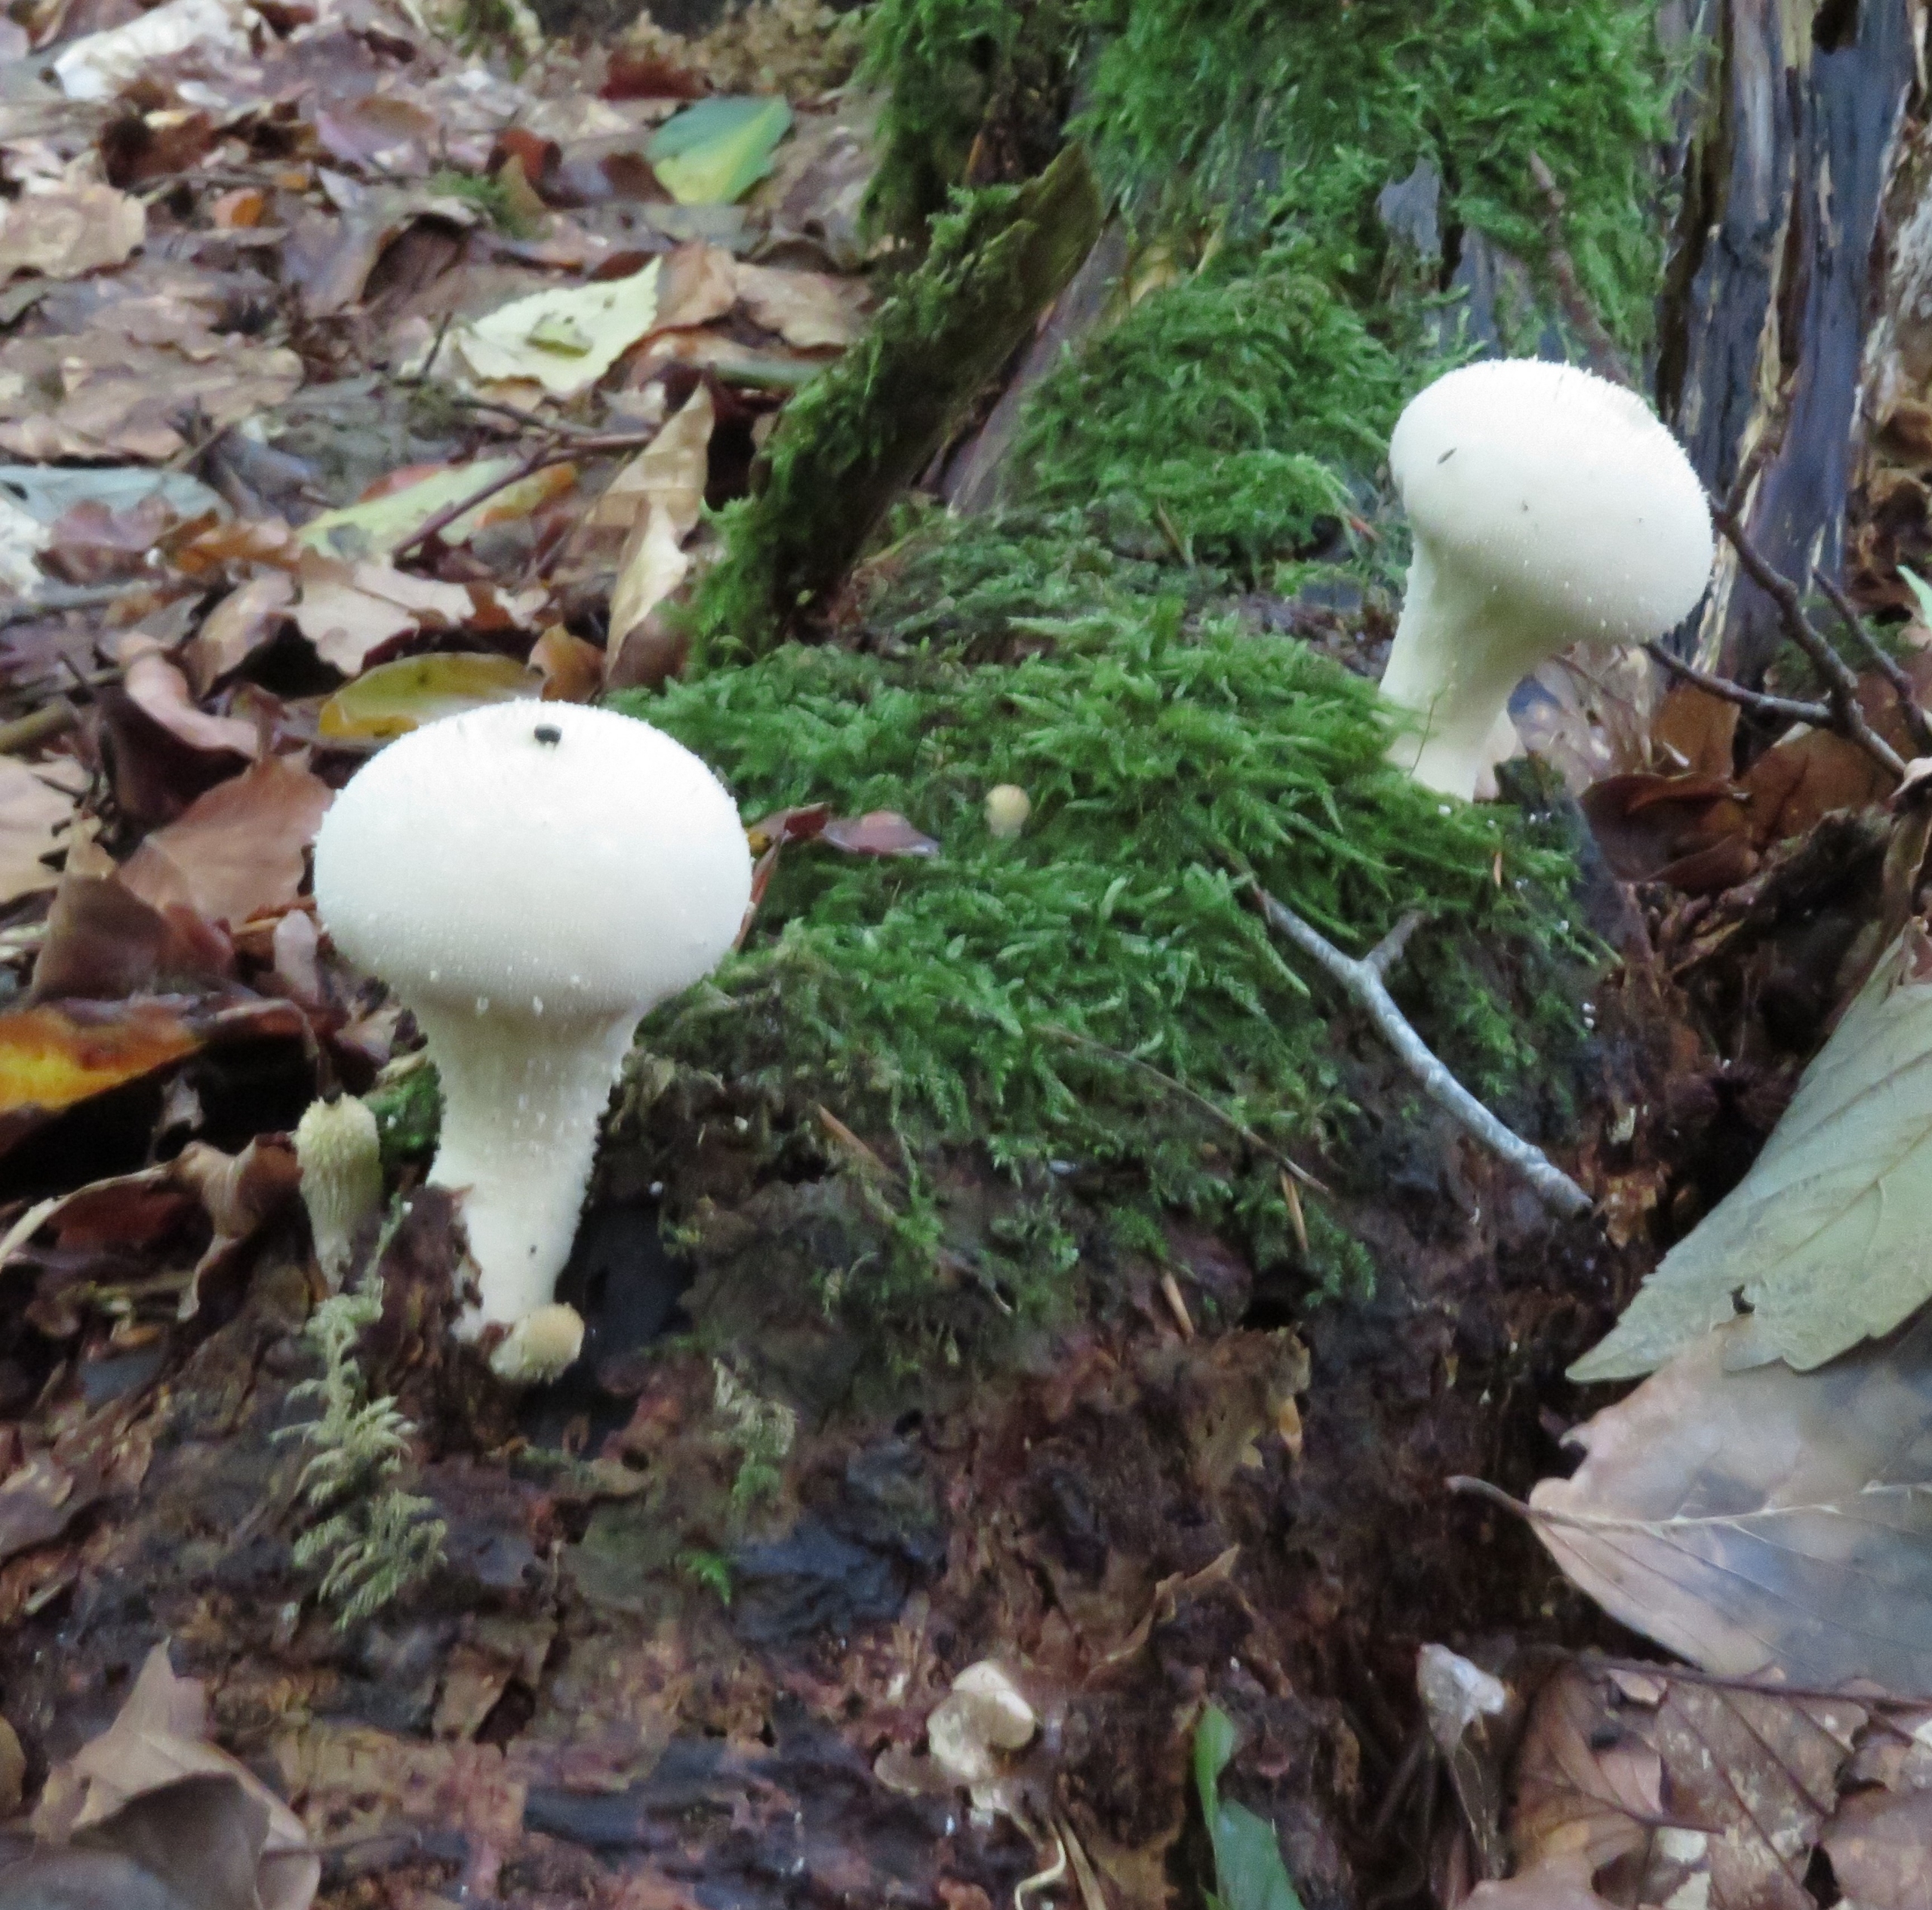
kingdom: Fungi
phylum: Basidiomycota
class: Agaricomycetes
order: Agaricales
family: Lycoperdaceae
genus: Apioperdon
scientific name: Apioperdon pyriforme
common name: Pære-støvbold
